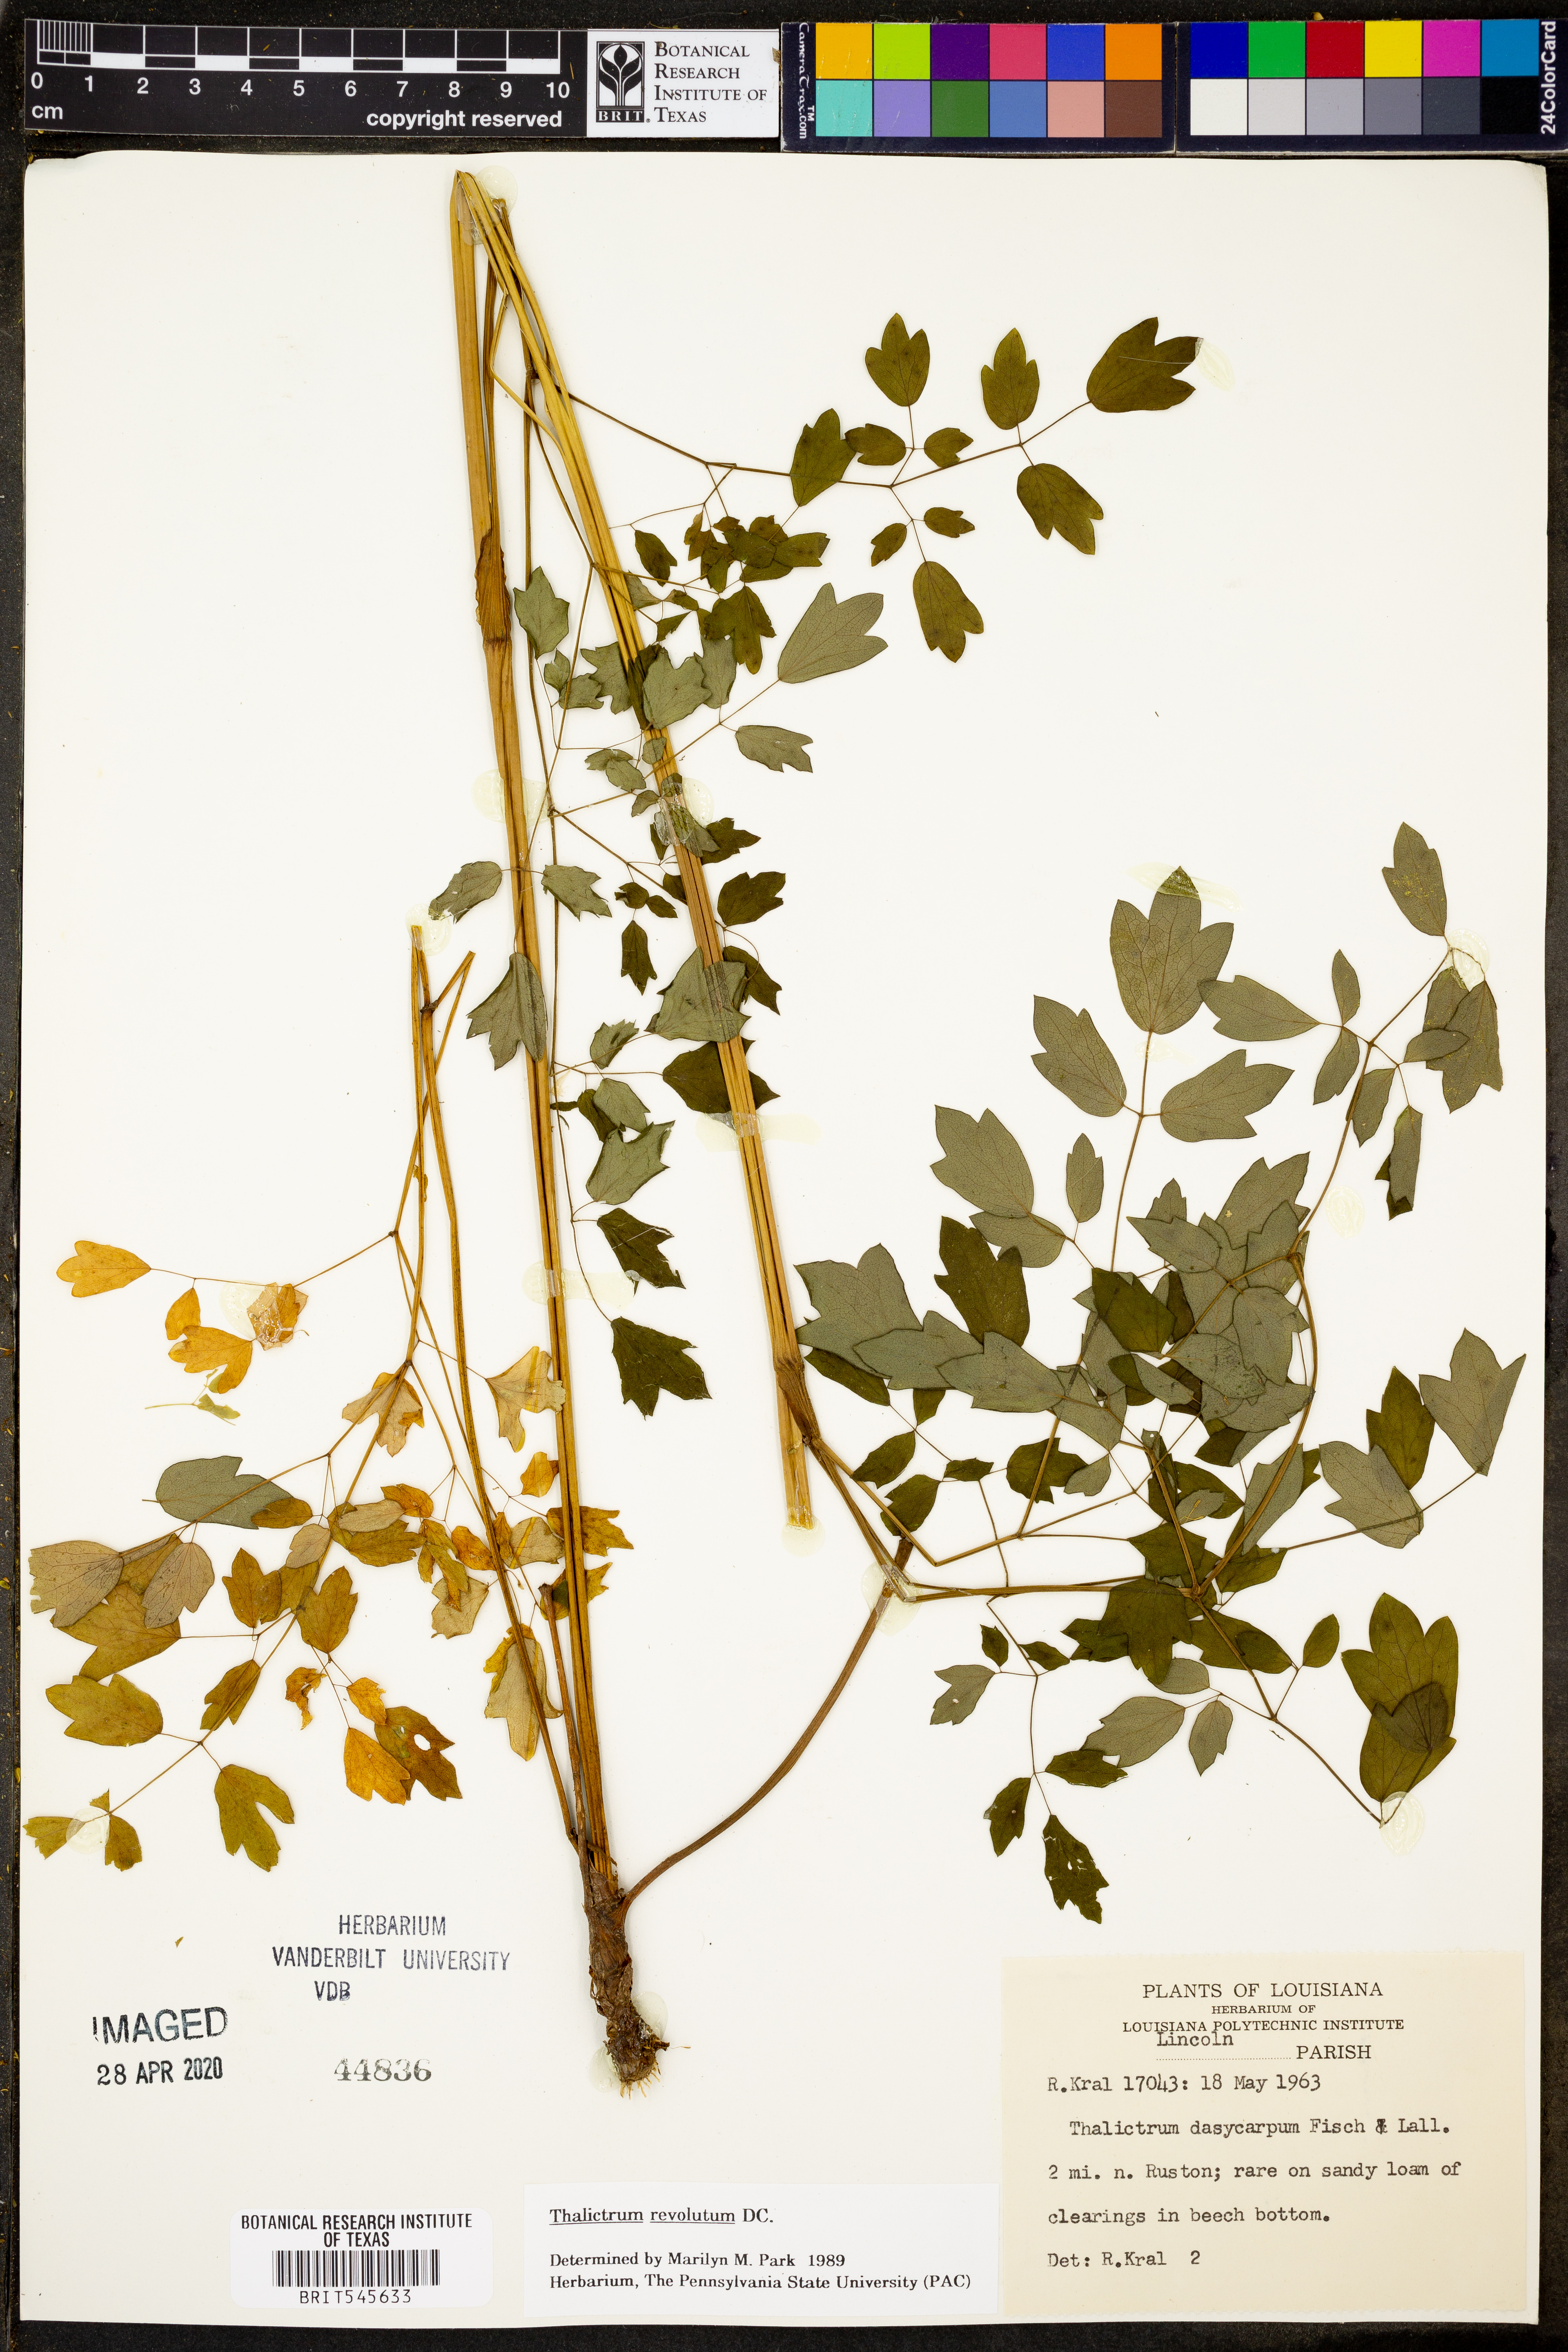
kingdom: Plantae
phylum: Tracheophyta
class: Magnoliopsida
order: Ranunculales
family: Ranunculaceae
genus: Thalictrum
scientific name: Thalictrum revolutum
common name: Waxy meadow-rue
